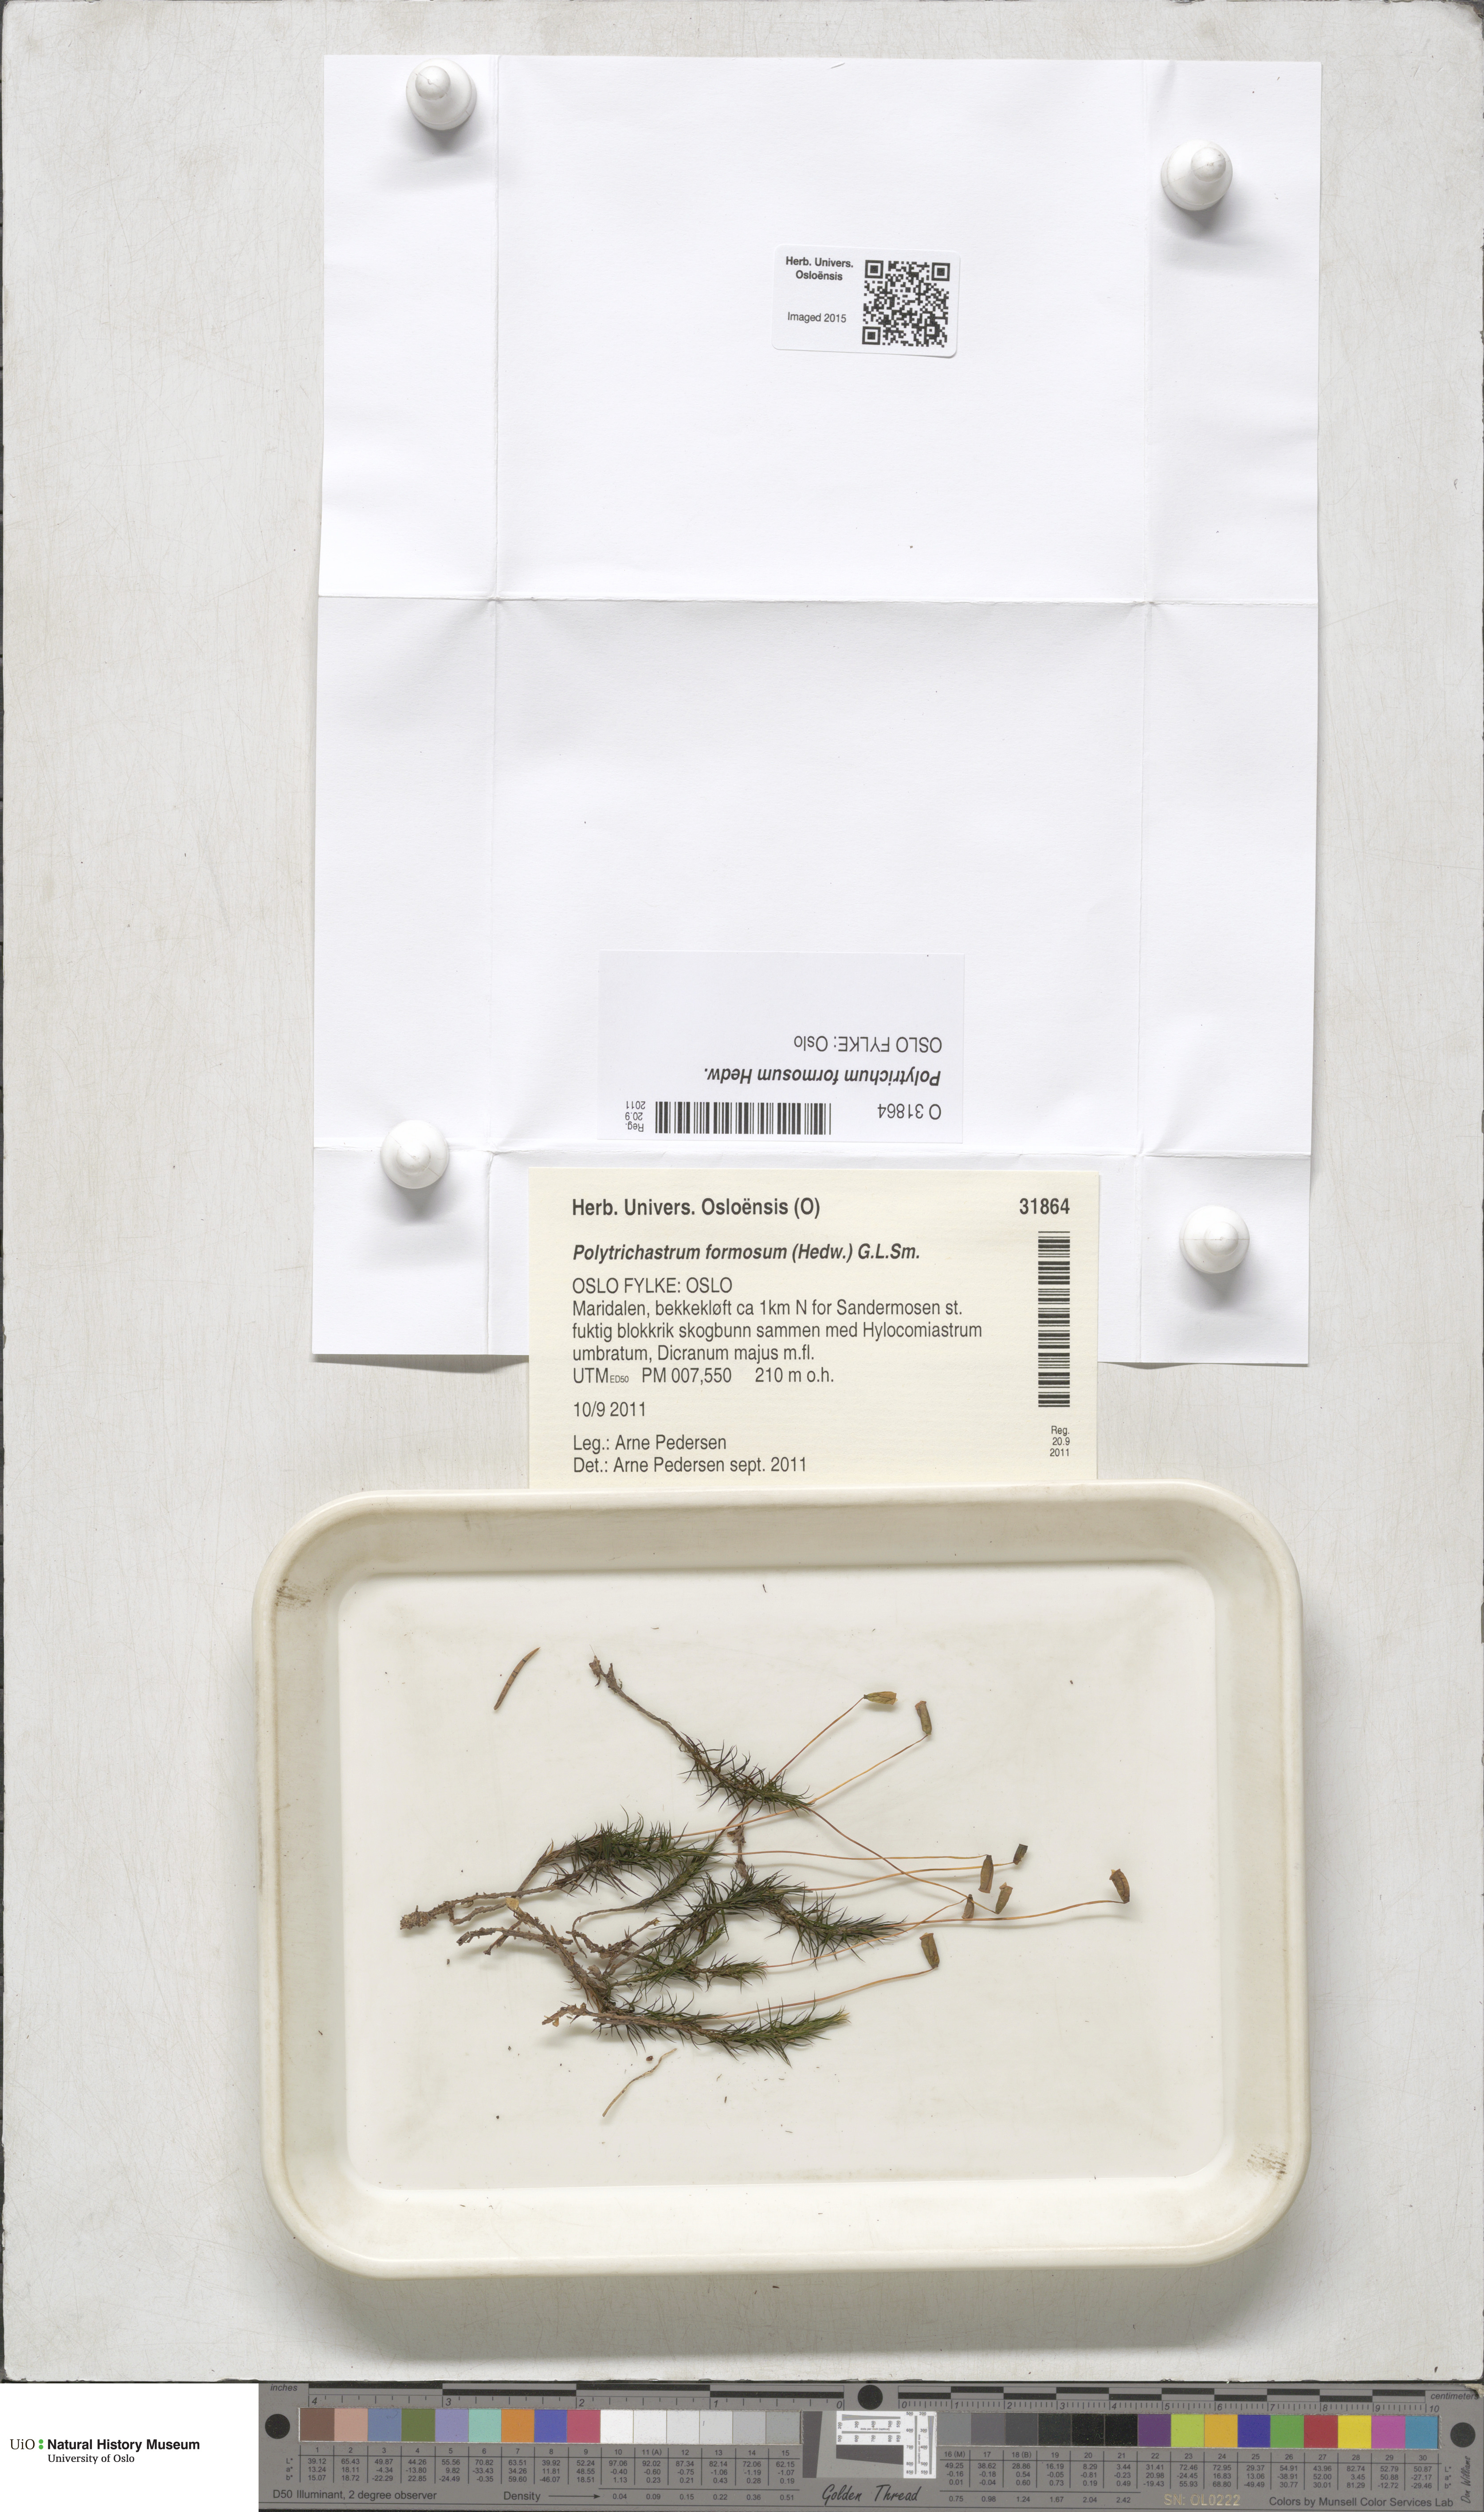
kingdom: Plantae
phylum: Bryophyta
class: Polytrichopsida
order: Polytrichales
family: Polytrichaceae
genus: Polytrichum
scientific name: Polytrichum formosum
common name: Bank haircap moss
